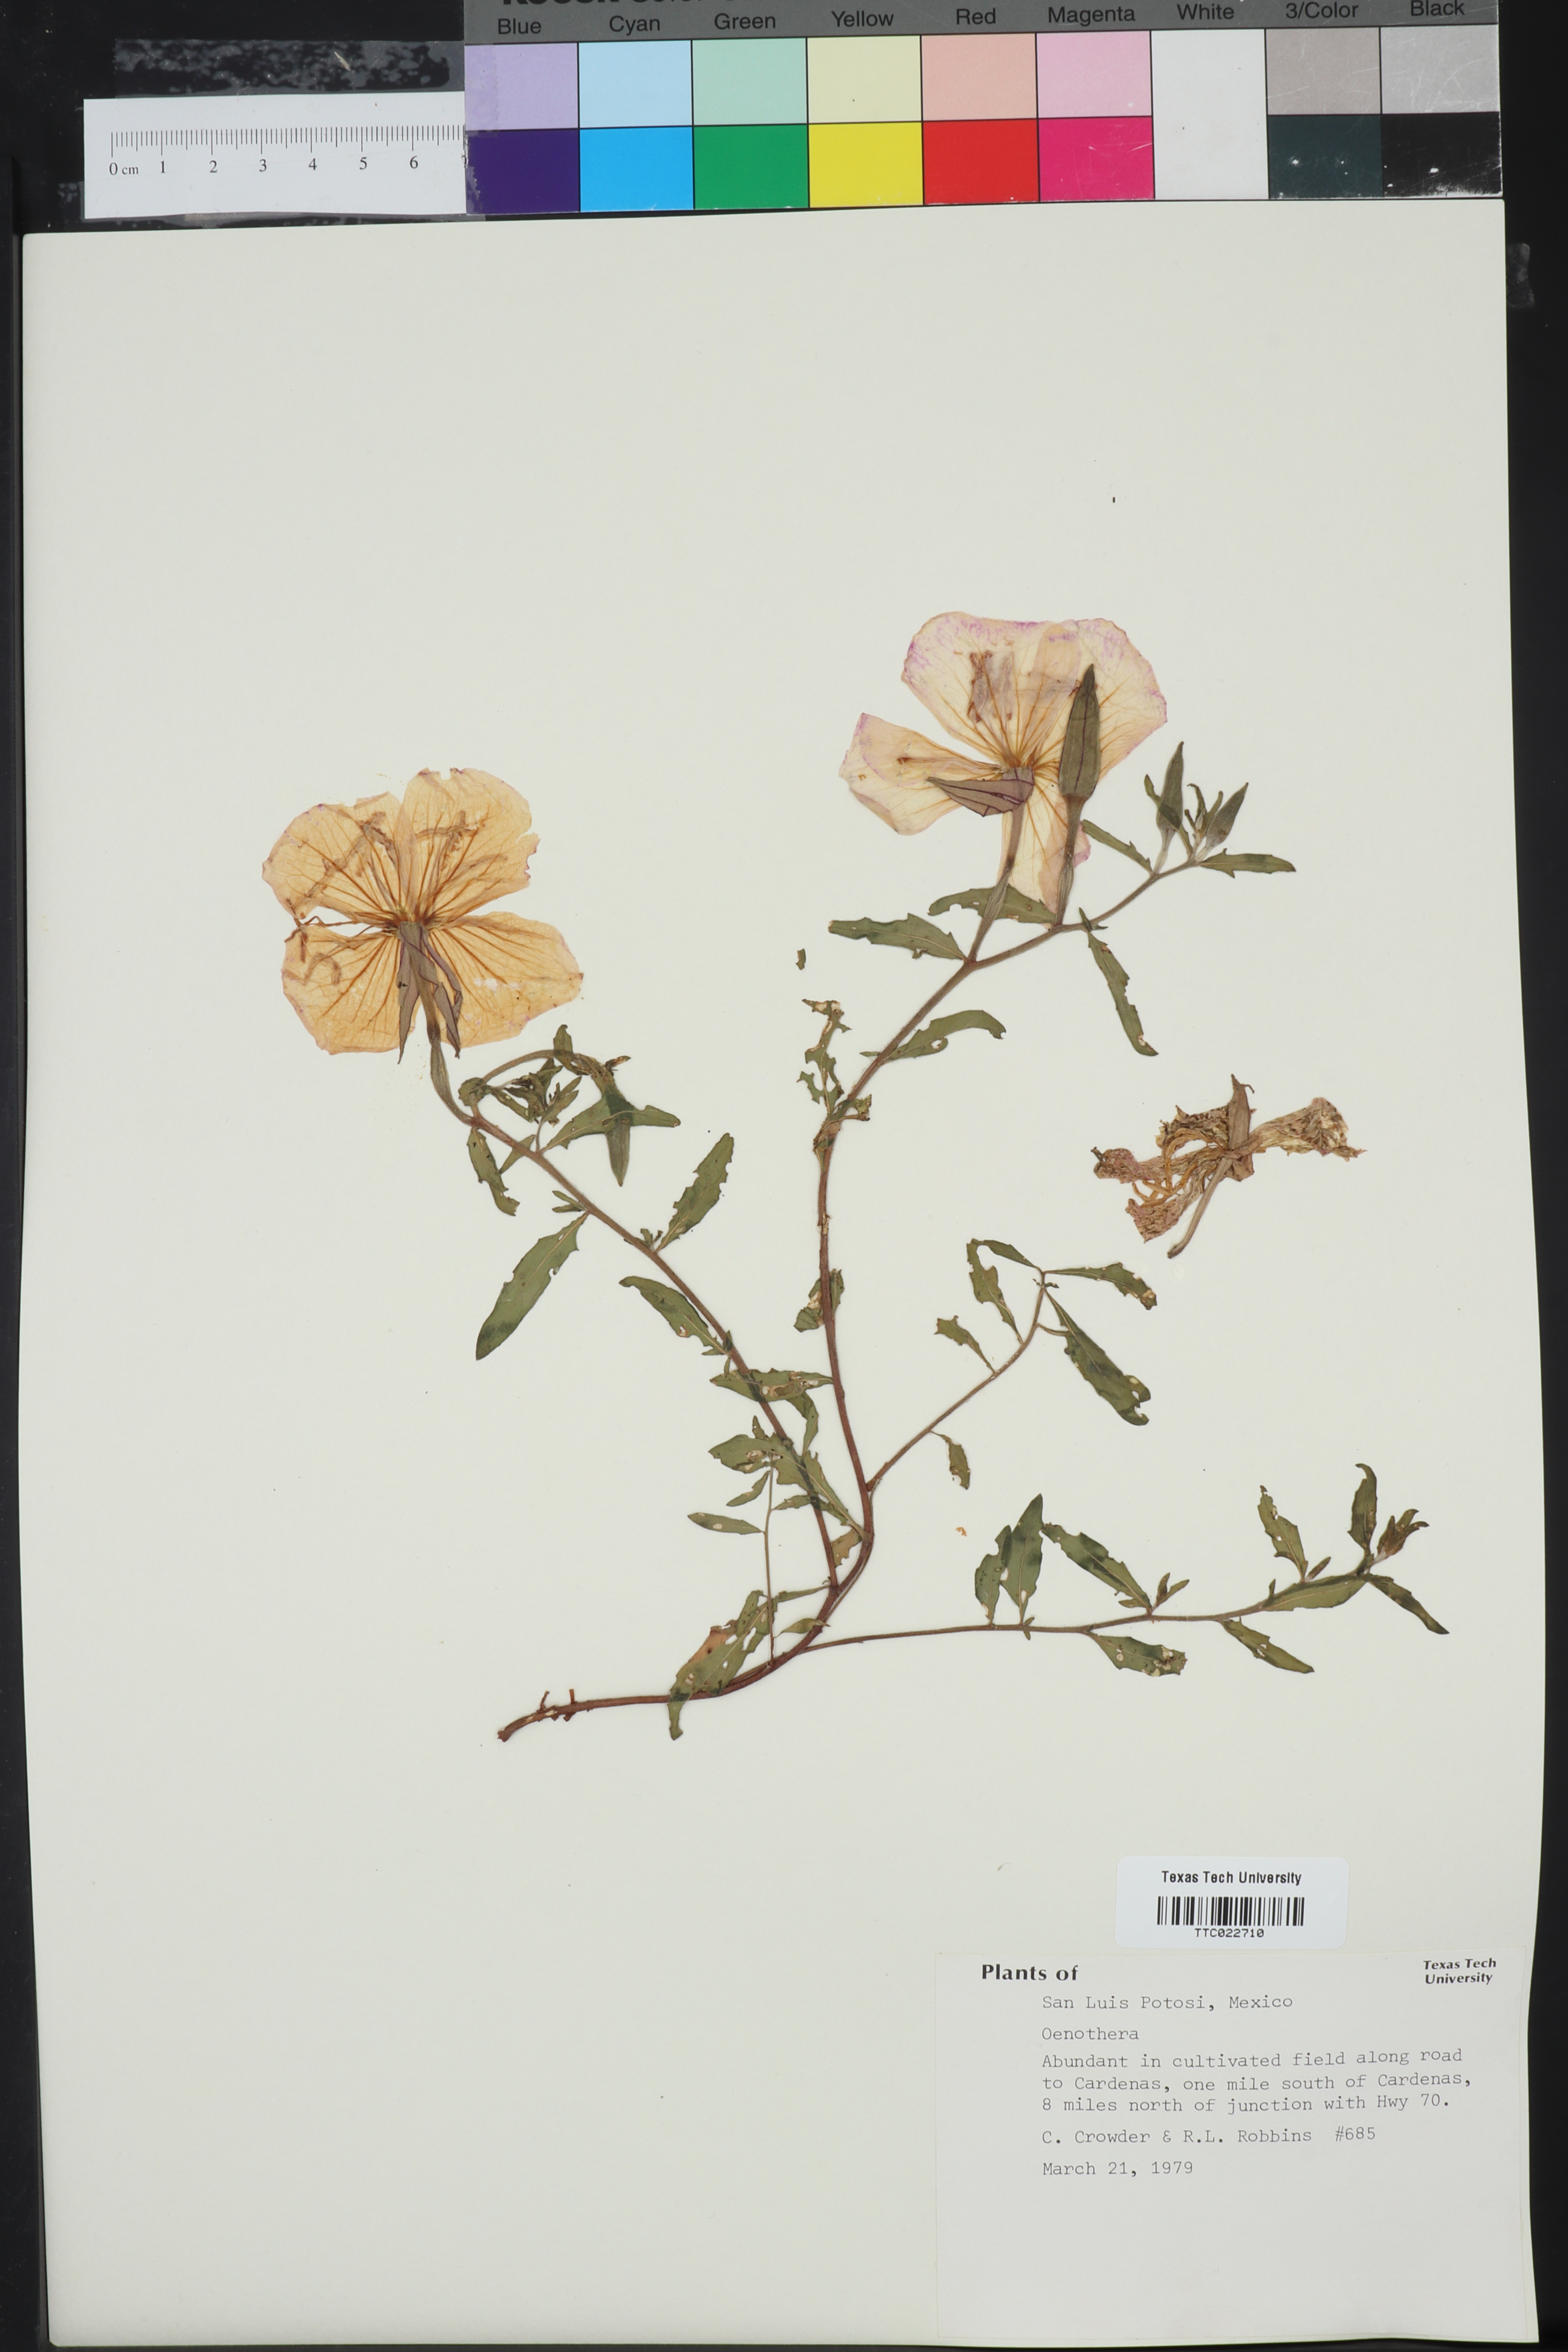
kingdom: Plantae
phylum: Tracheophyta
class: Magnoliopsida
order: Myrtales
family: Onagraceae
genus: Oenothera
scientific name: Oenothera
